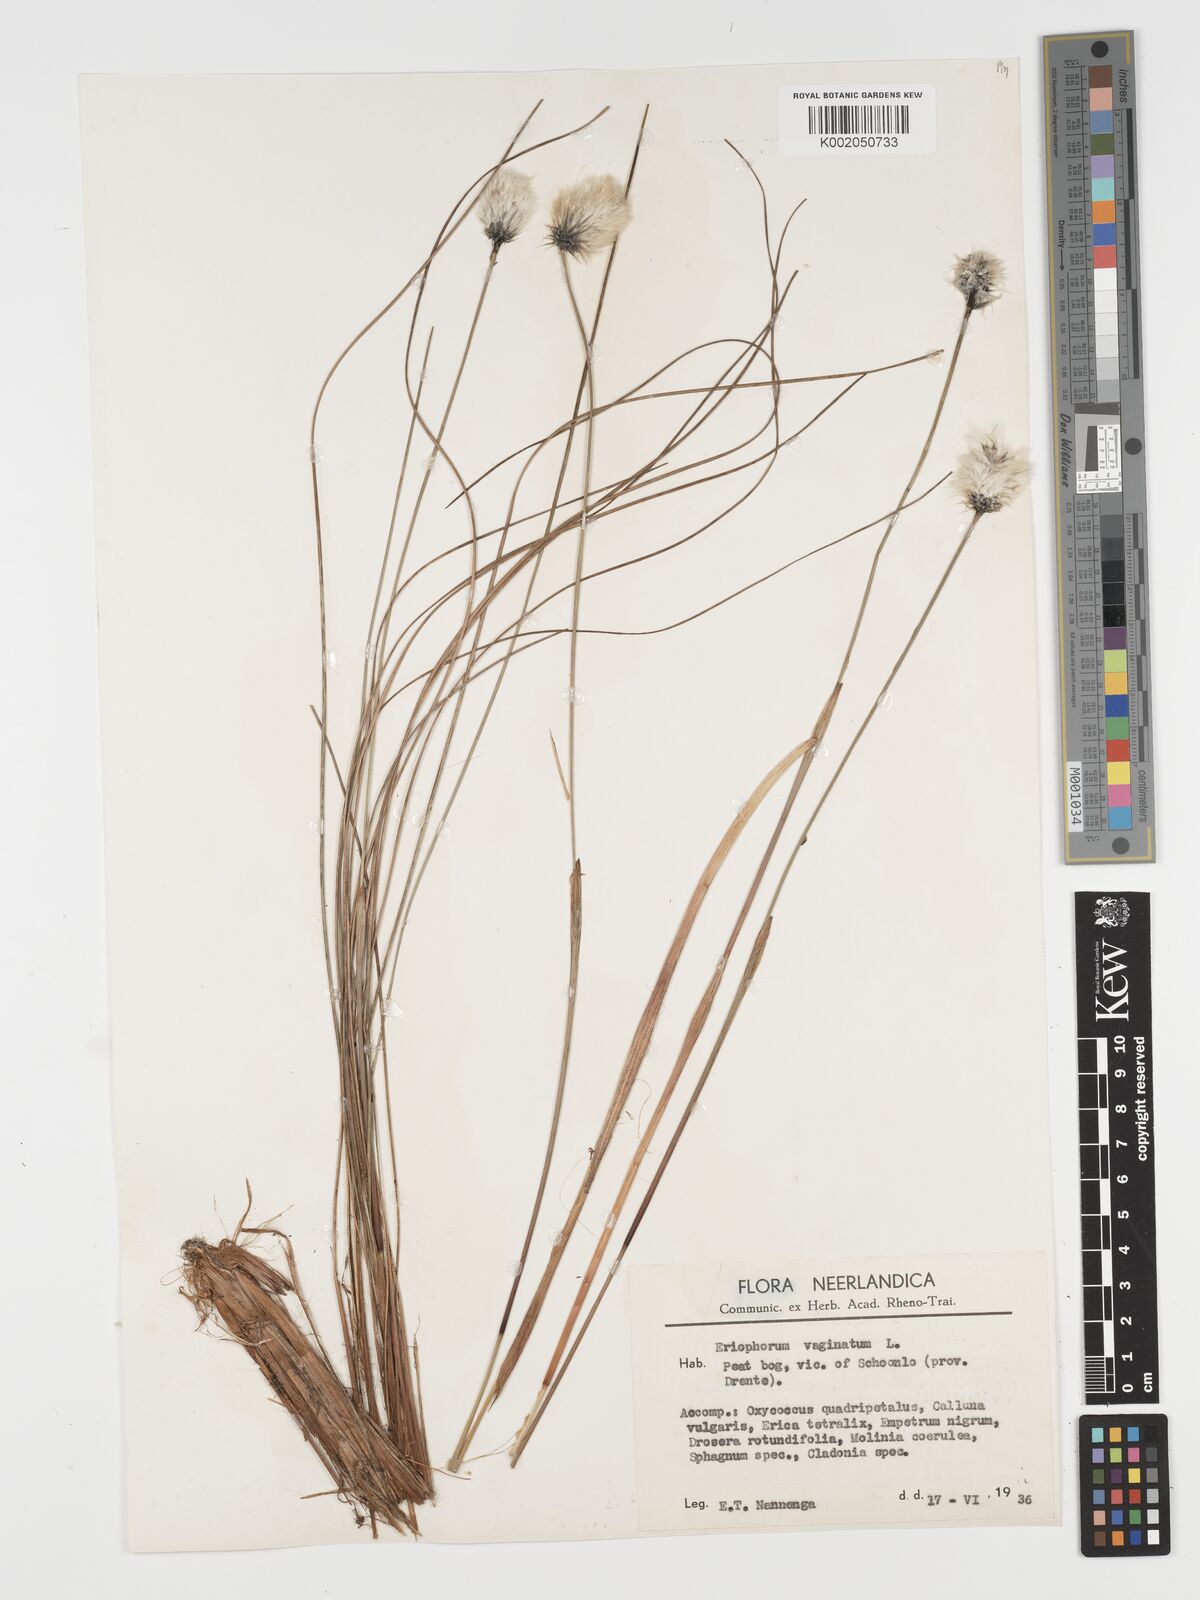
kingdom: Plantae
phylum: Tracheophyta
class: Liliopsida
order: Poales
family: Cyperaceae
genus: Eriophorum
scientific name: Eriophorum vaginatum
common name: Hare's-tail cottongrass
